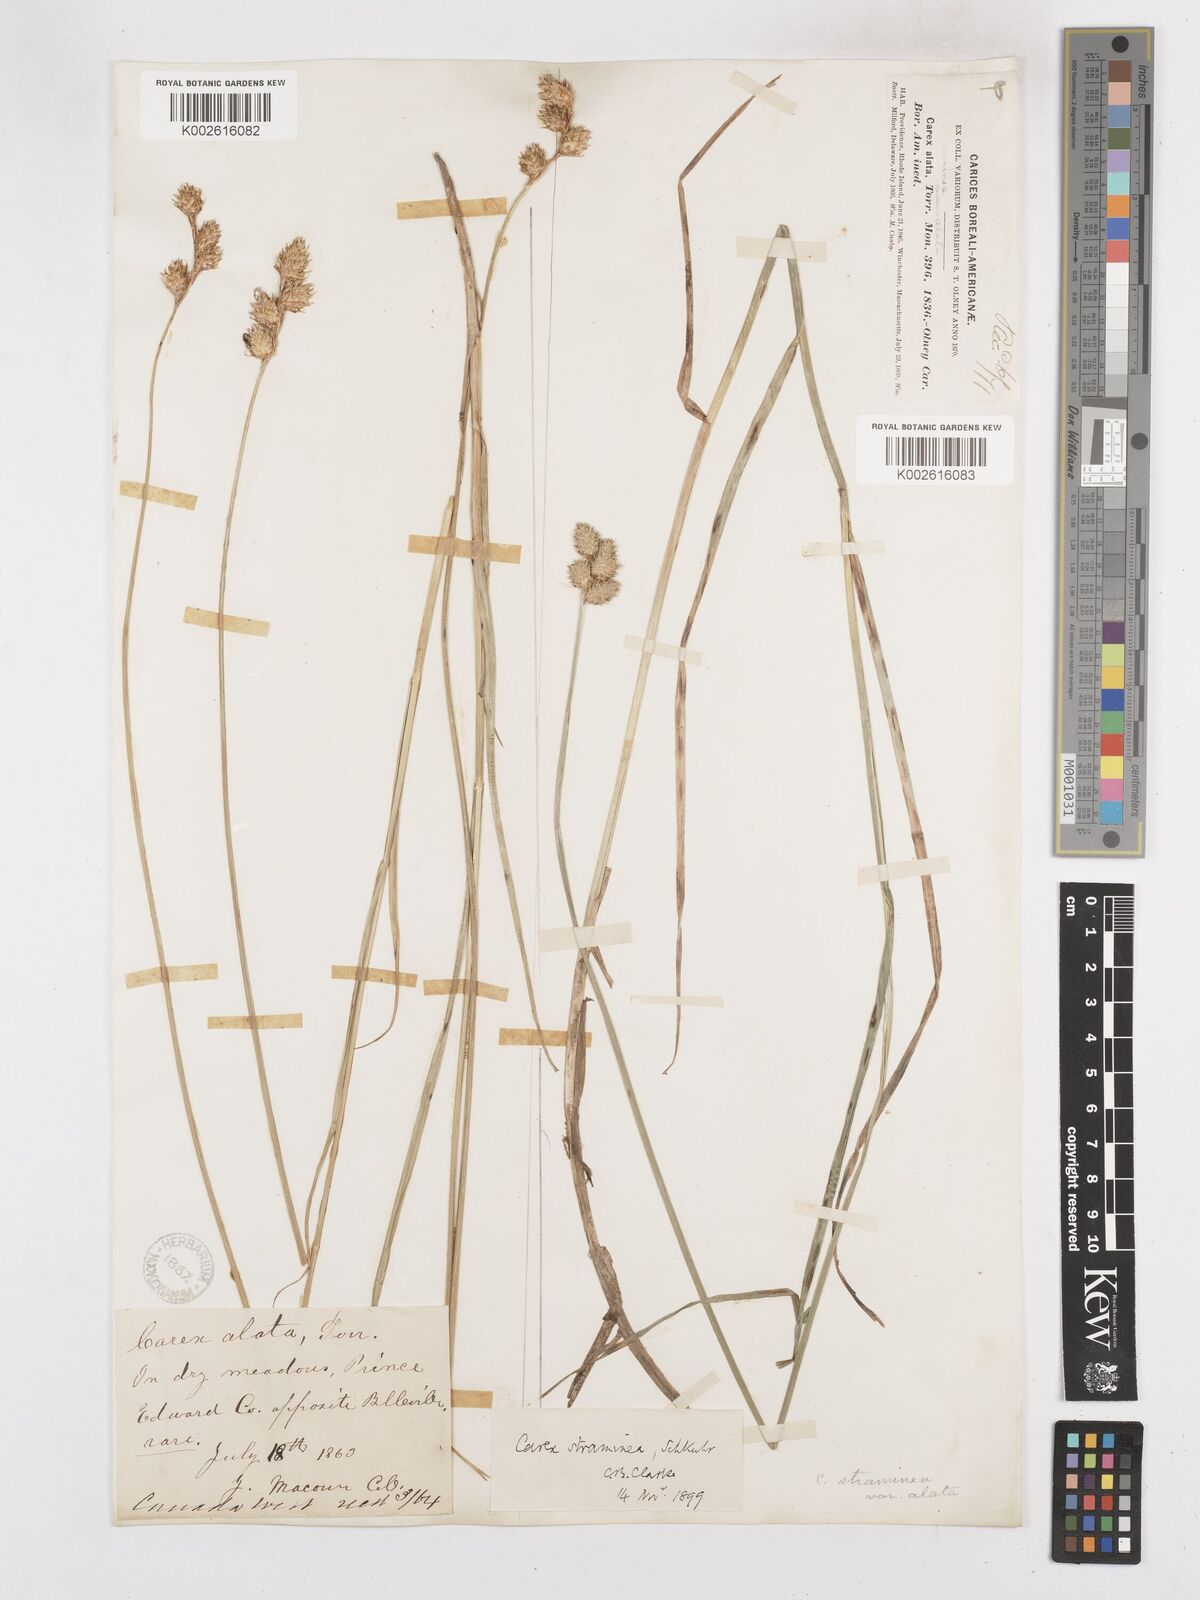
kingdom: Plantae
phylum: Tracheophyta
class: Liliopsida
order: Poales
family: Cyperaceae
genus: Carex
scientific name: Carex brevior
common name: Brevior sedge
